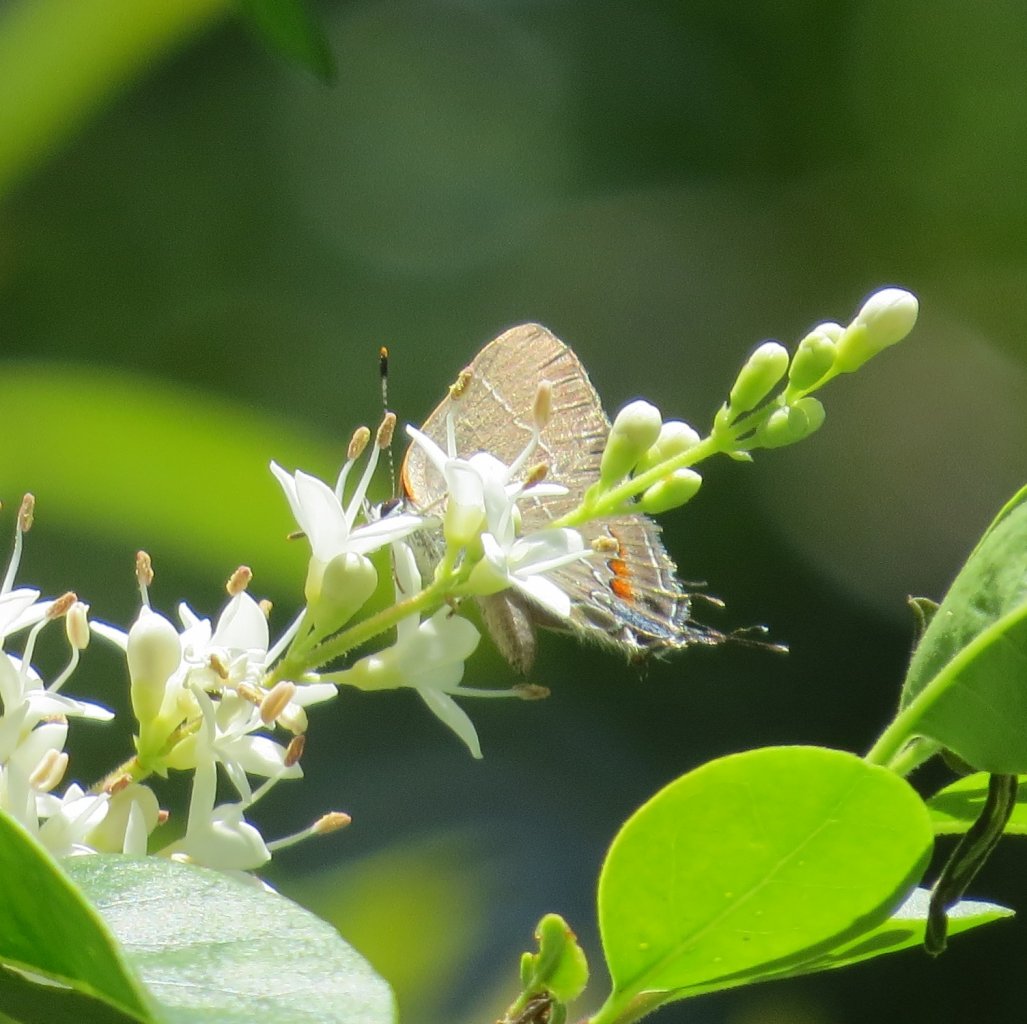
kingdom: Animalia
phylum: Arthropoda
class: Insecta
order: Lepidoptera
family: Lycaenidae
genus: Fixsenia
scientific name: Fixsenia favonius
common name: Oak Hairstreak
